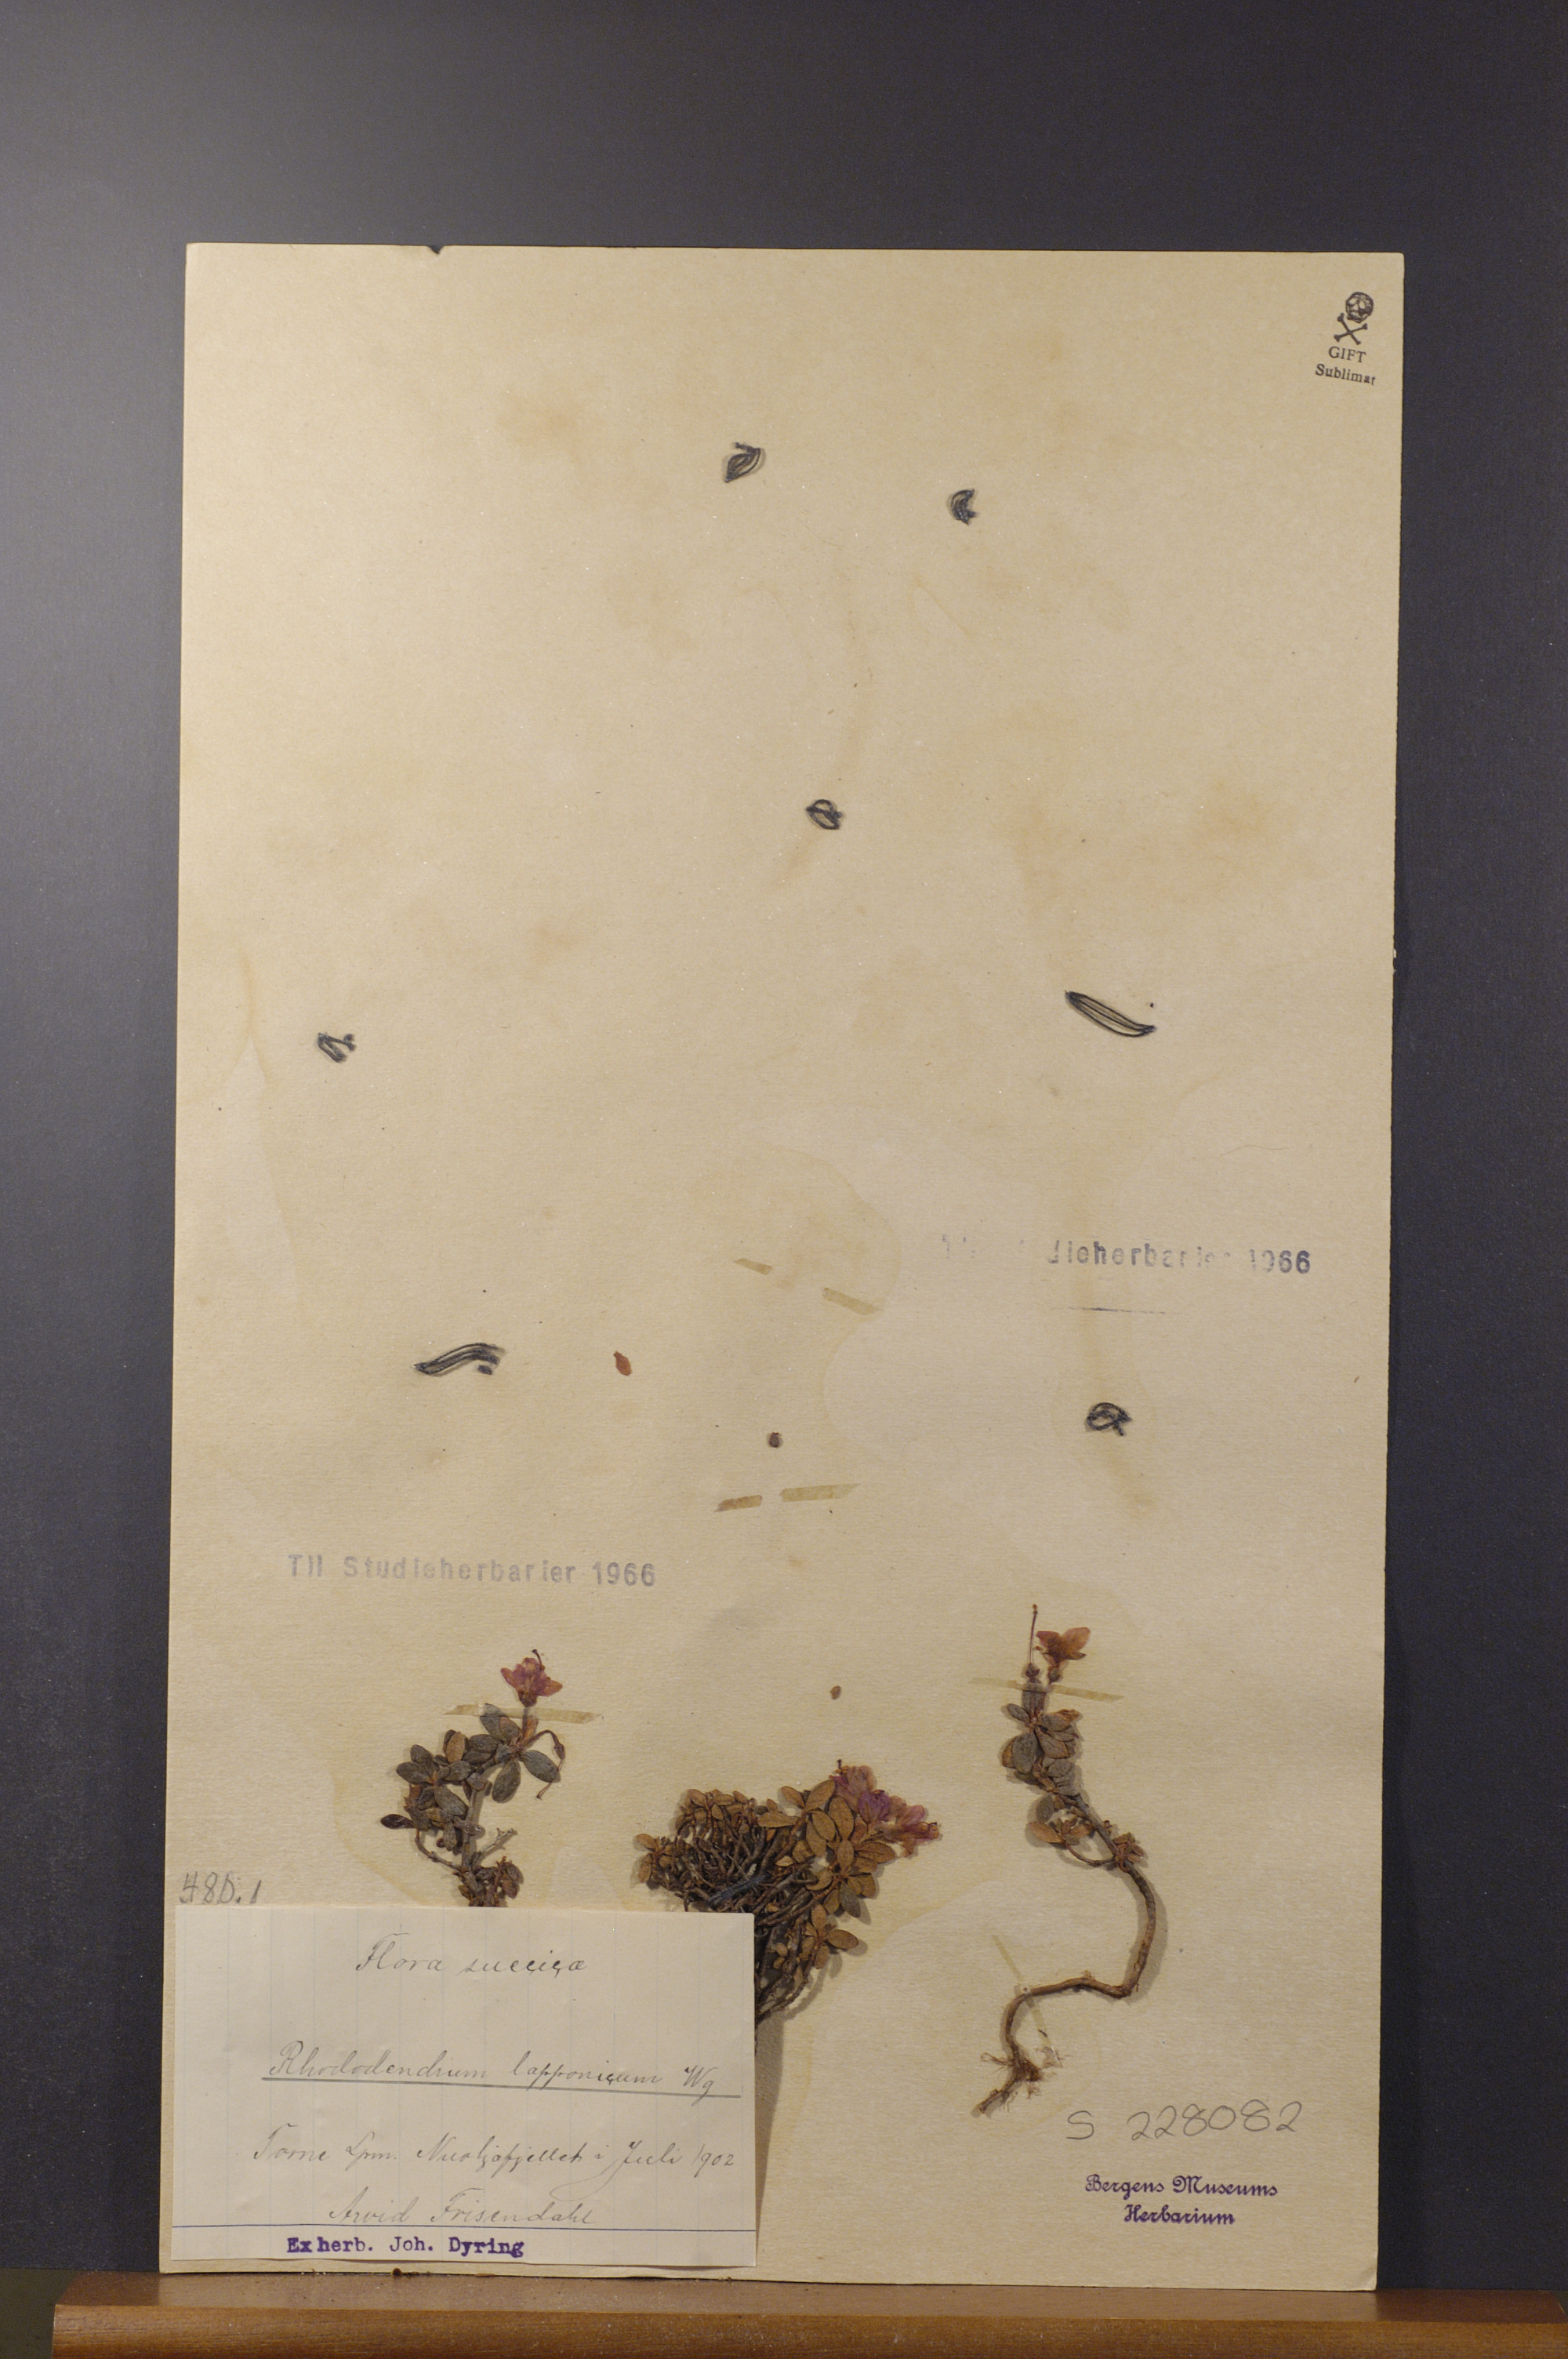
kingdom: Plantae
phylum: Tracheophyta
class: Magnoliopsida
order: Ericales
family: Ericaceae
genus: Rhododendron
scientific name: Rhododendron lapponicum
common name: Lapland rhododendron
